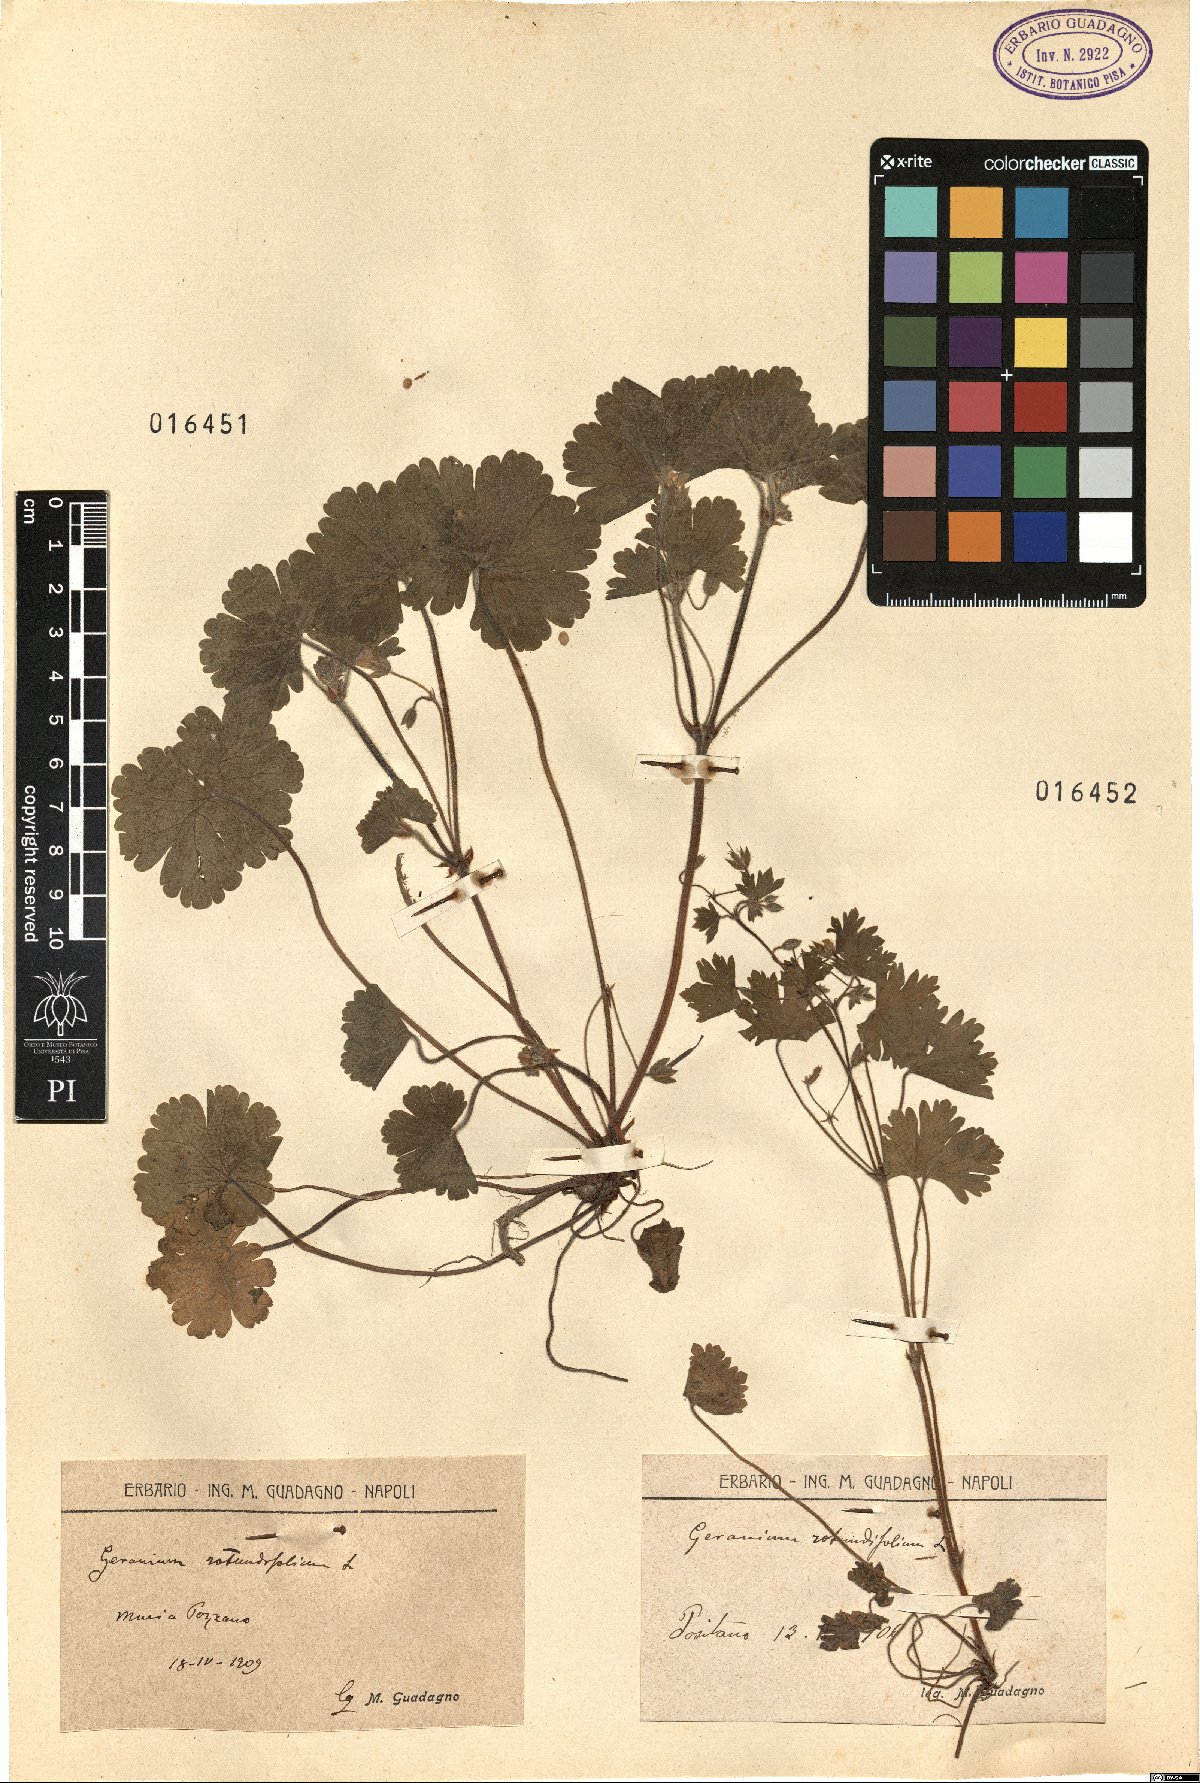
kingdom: Plantae
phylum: Tracheophyta
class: Magnoliopsida
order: Geraniales
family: Geraniaceae
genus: Geranium
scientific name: Geranium rotundifolium
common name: Round-leaved crane's-bill
